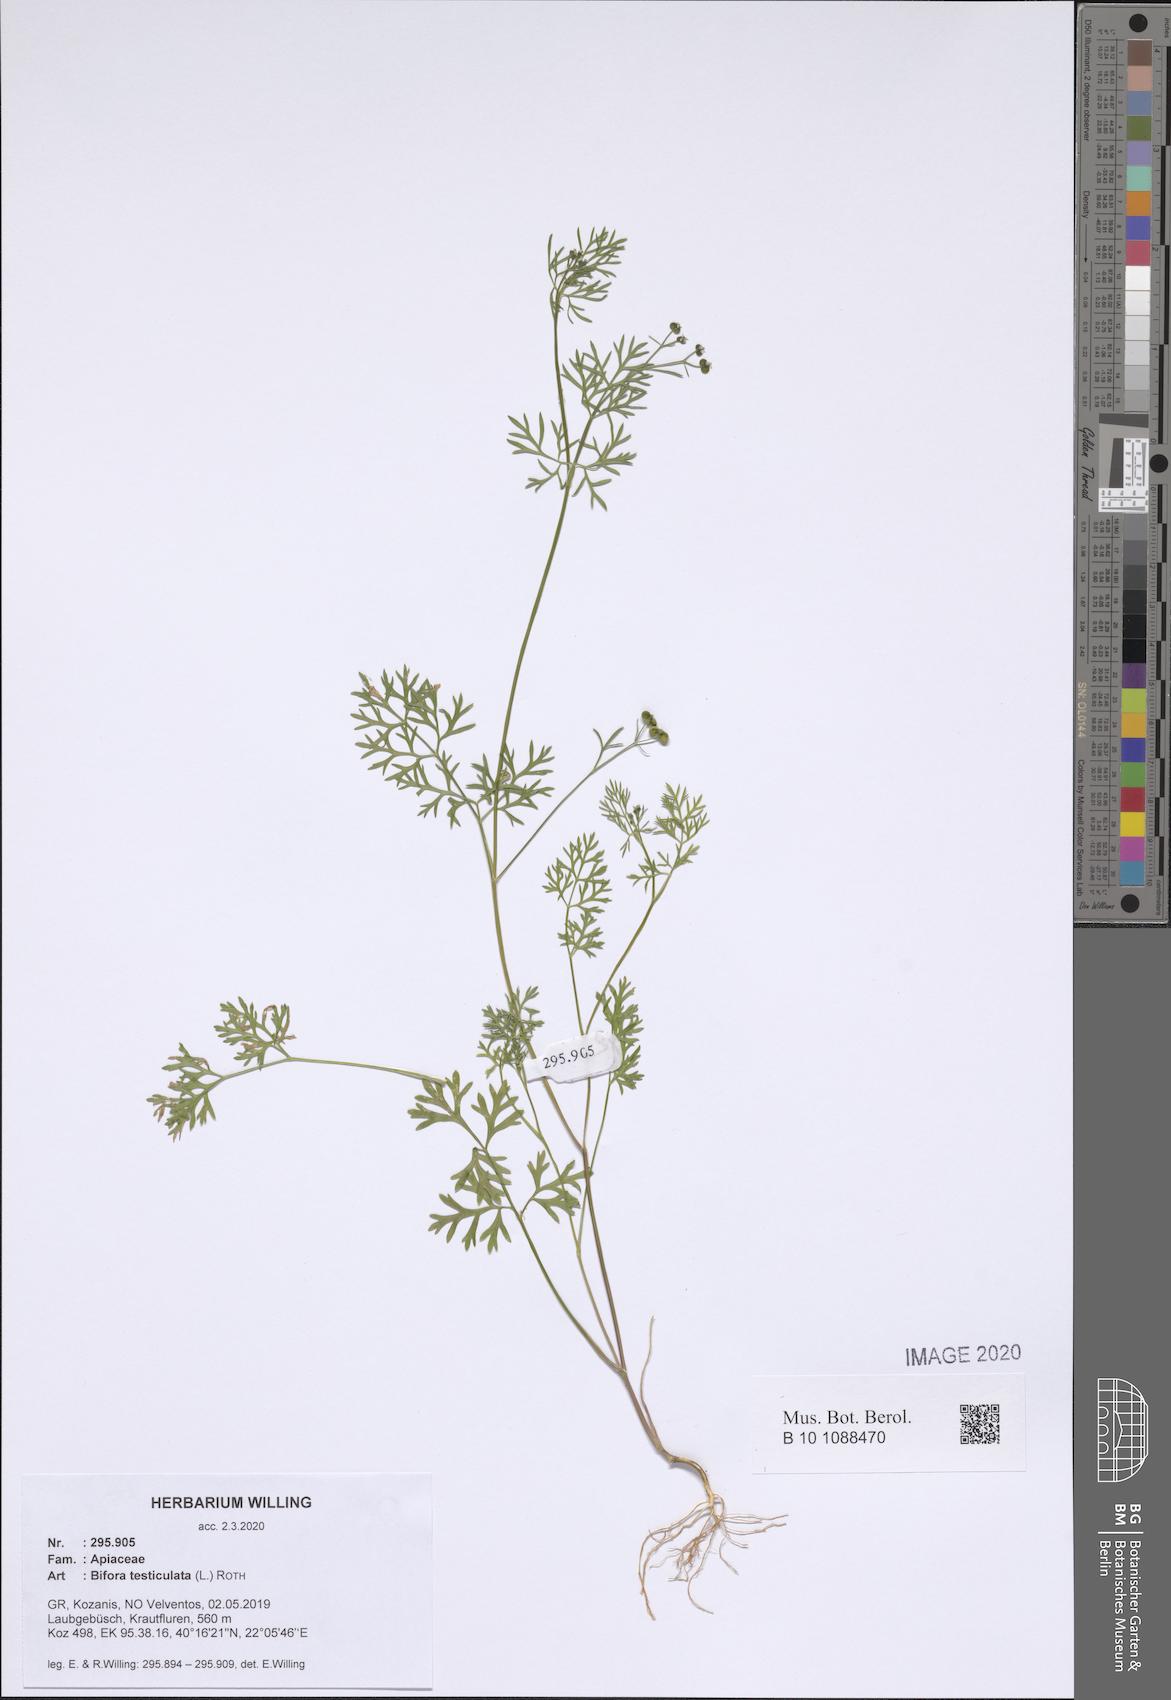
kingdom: Plantae
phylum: Tracheophyta
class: Magnoliopsida
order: Apiales
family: Apiaceae
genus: Bifora
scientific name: Bifora testiculata
